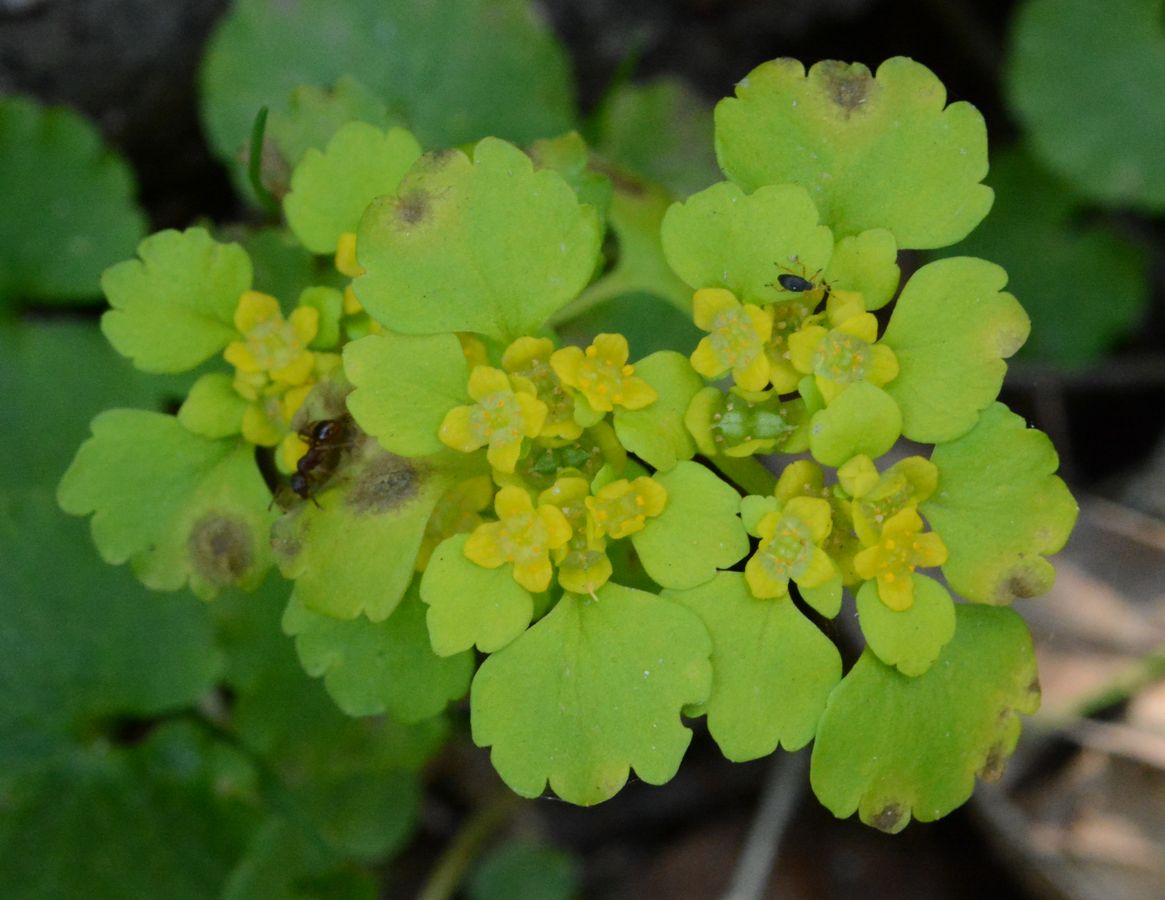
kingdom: Plantae
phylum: Tracheophyta
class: Magnoliopsida
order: Saxifragales
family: Saxifragaceae
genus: Chrysosplenium
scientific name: Chrysosplenium alternifolium
